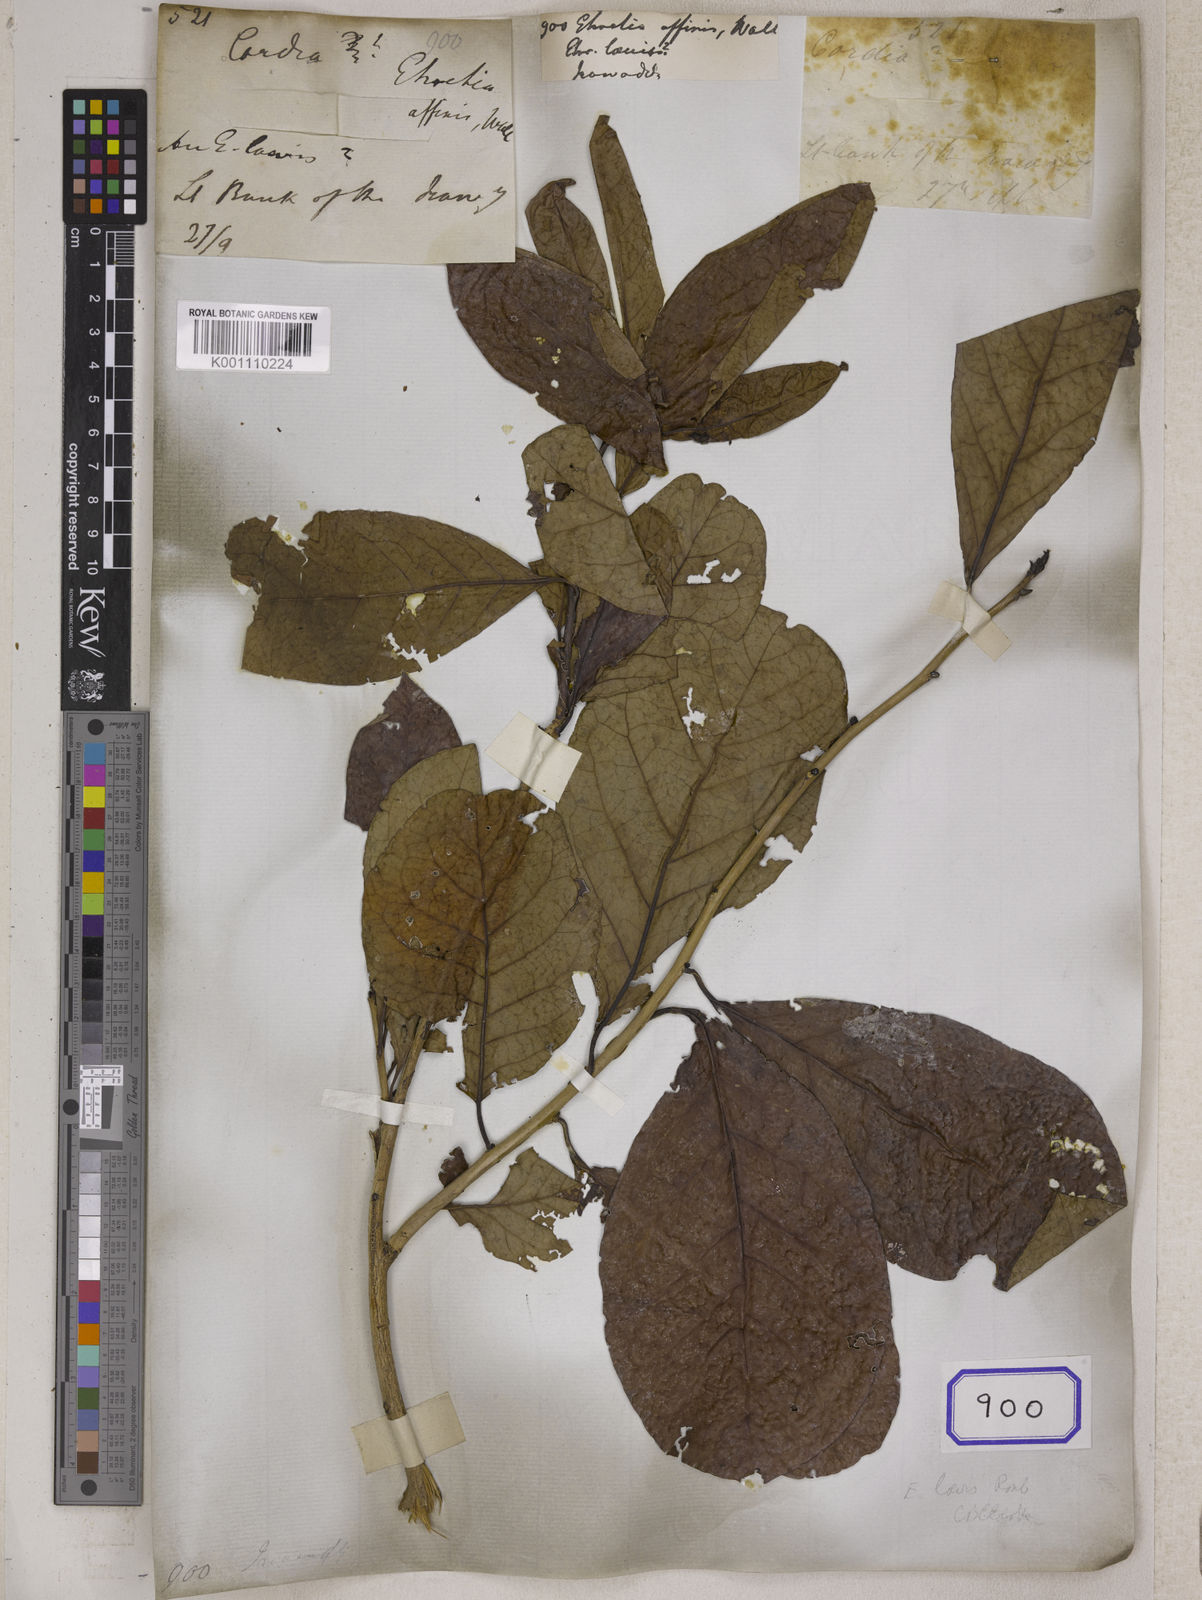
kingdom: Plantae
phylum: Tracheophyta
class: Magnoliopsida
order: Boraginales
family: Ehretiaceae
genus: Ehretia
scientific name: Ehretia aspera
